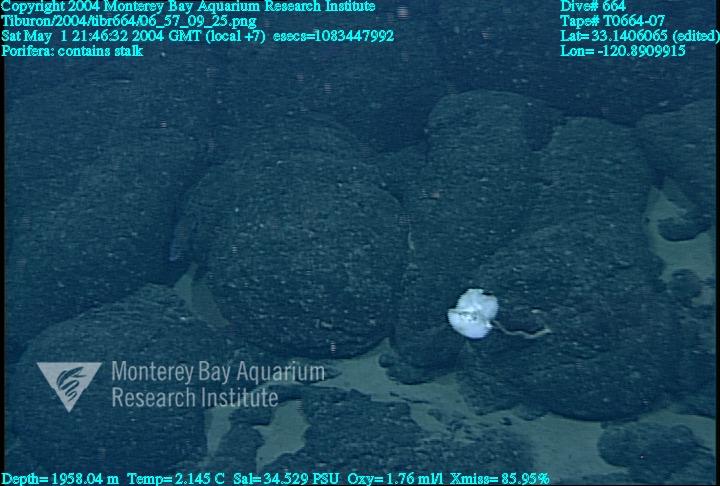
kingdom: Animalia
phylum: Porifera
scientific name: Porifera
